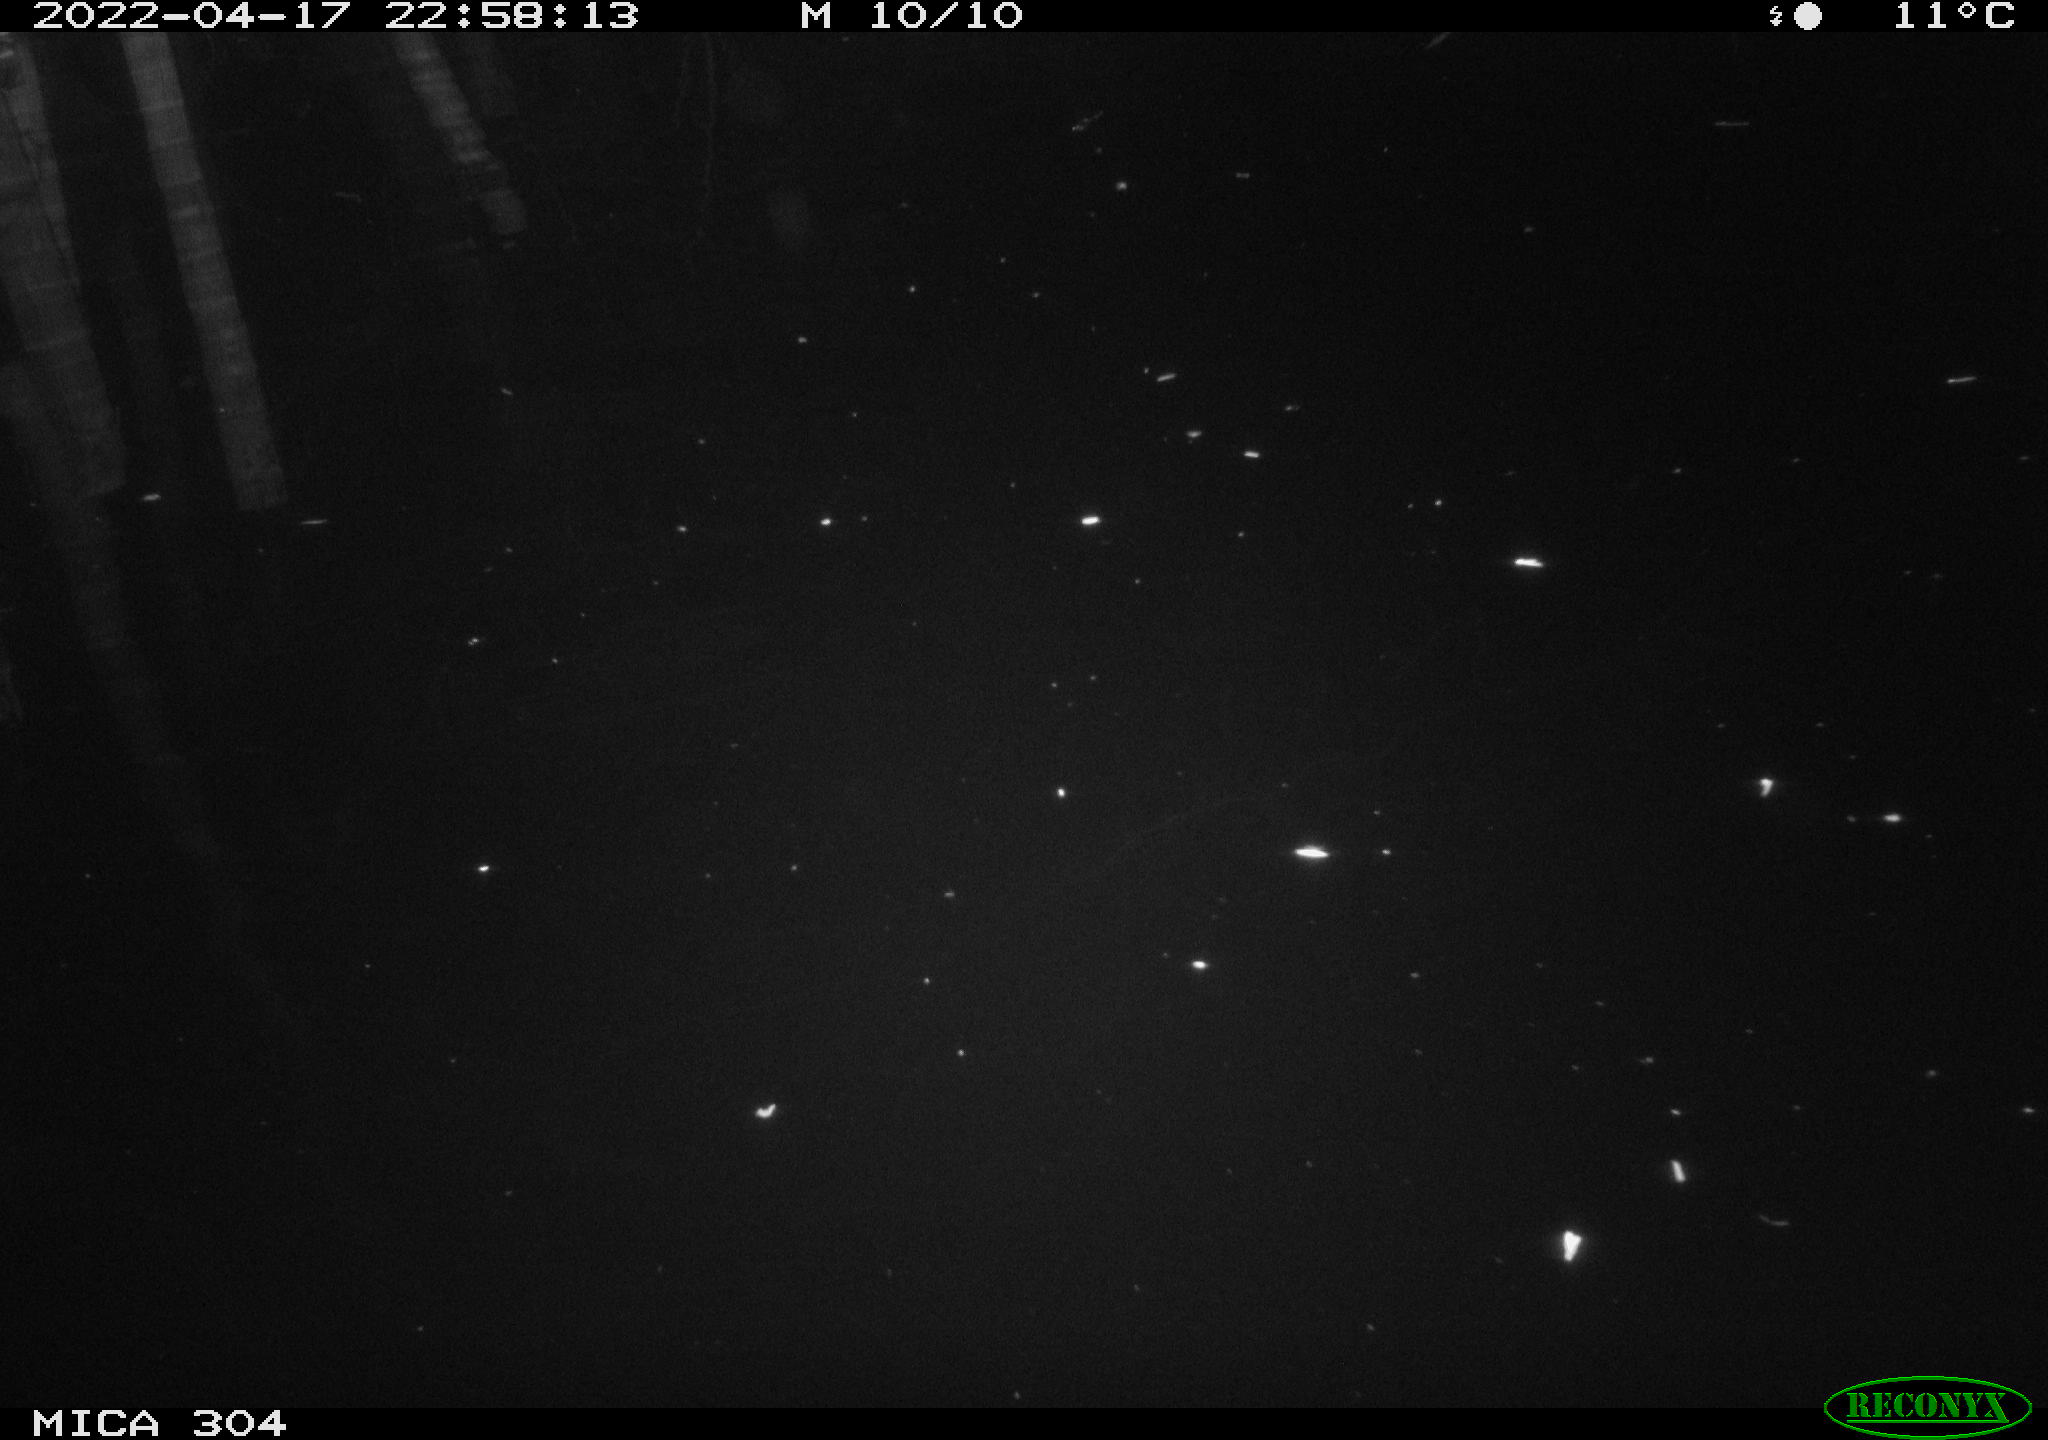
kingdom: Animalia
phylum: Chordata
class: Mammalia
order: Rodentia
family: Muridae
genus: Rattus
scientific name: Rattus norvegicus
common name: Brown rat
